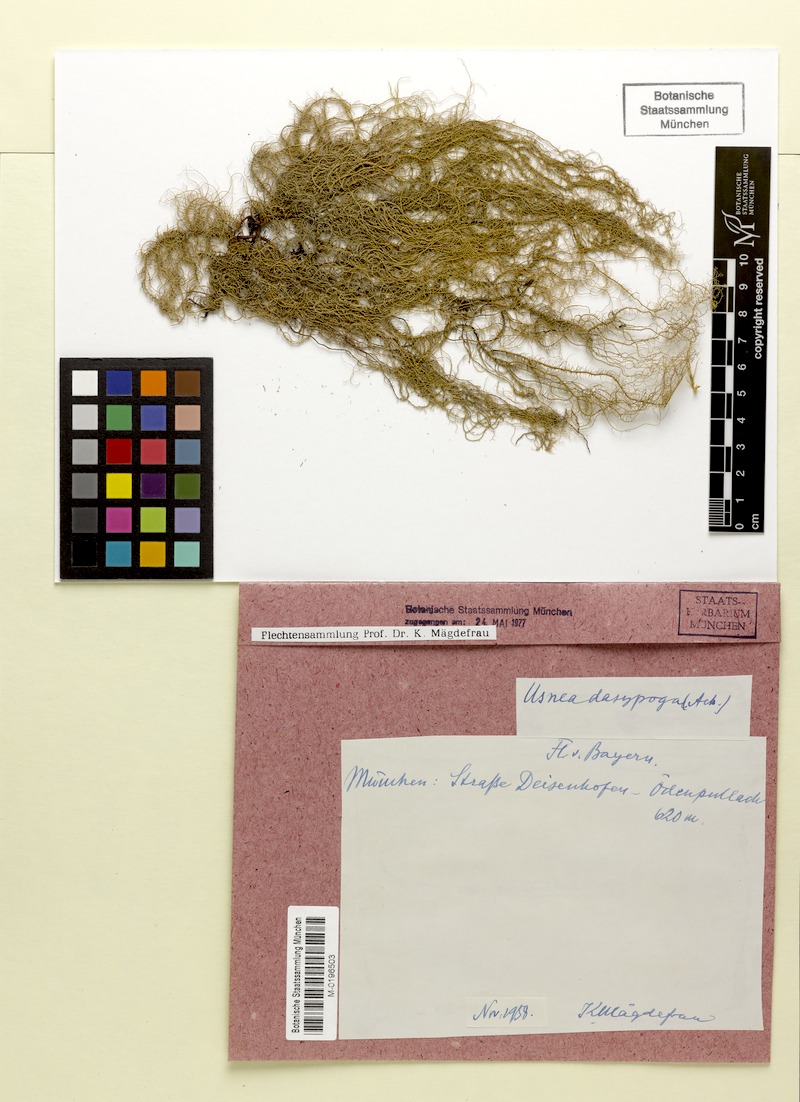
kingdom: Fungi
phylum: Ascomycota
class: Lecanoromycetes
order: Lecanorales
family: Parmeliaceae
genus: Usnea
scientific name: Usnea dasopoga
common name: Fishbone beard lichen
